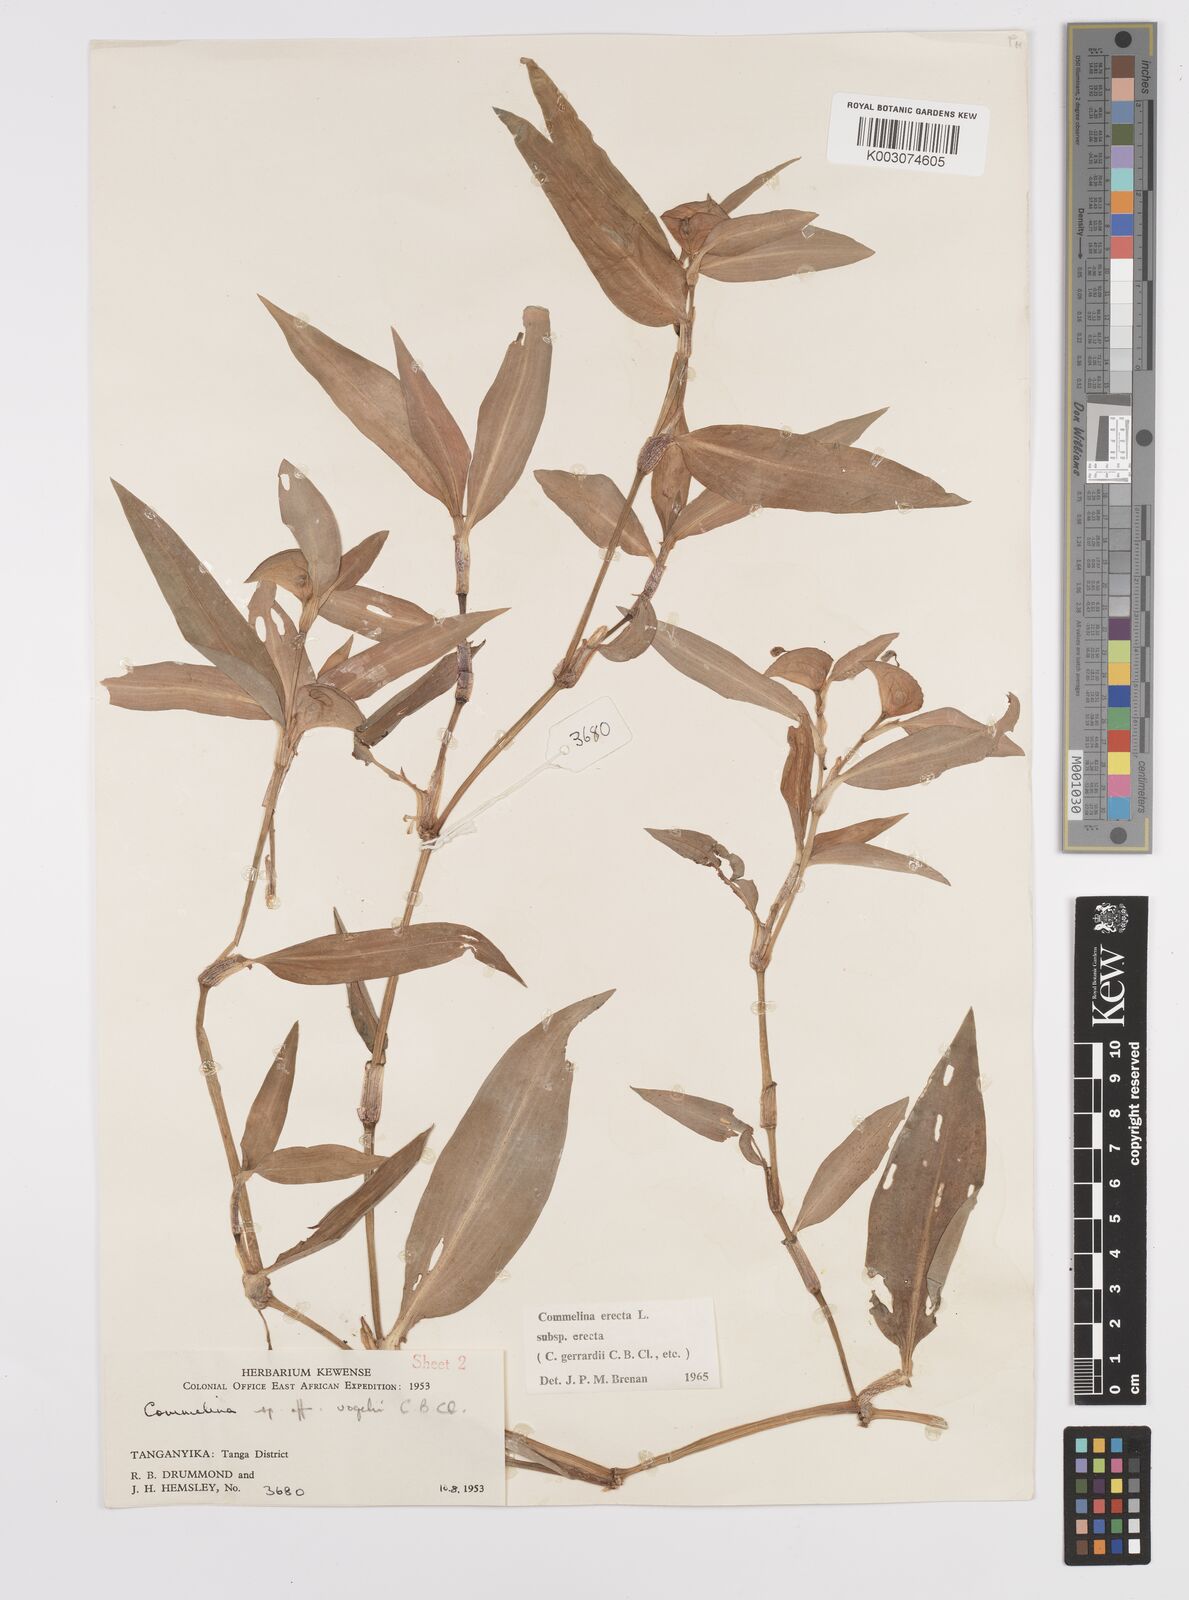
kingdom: Plantae
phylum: Tracheophyta
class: Liliopsida
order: Commelinales
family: Commelinaceae
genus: Commelina
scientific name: Commelina erecta
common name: Blousel blommetjie
